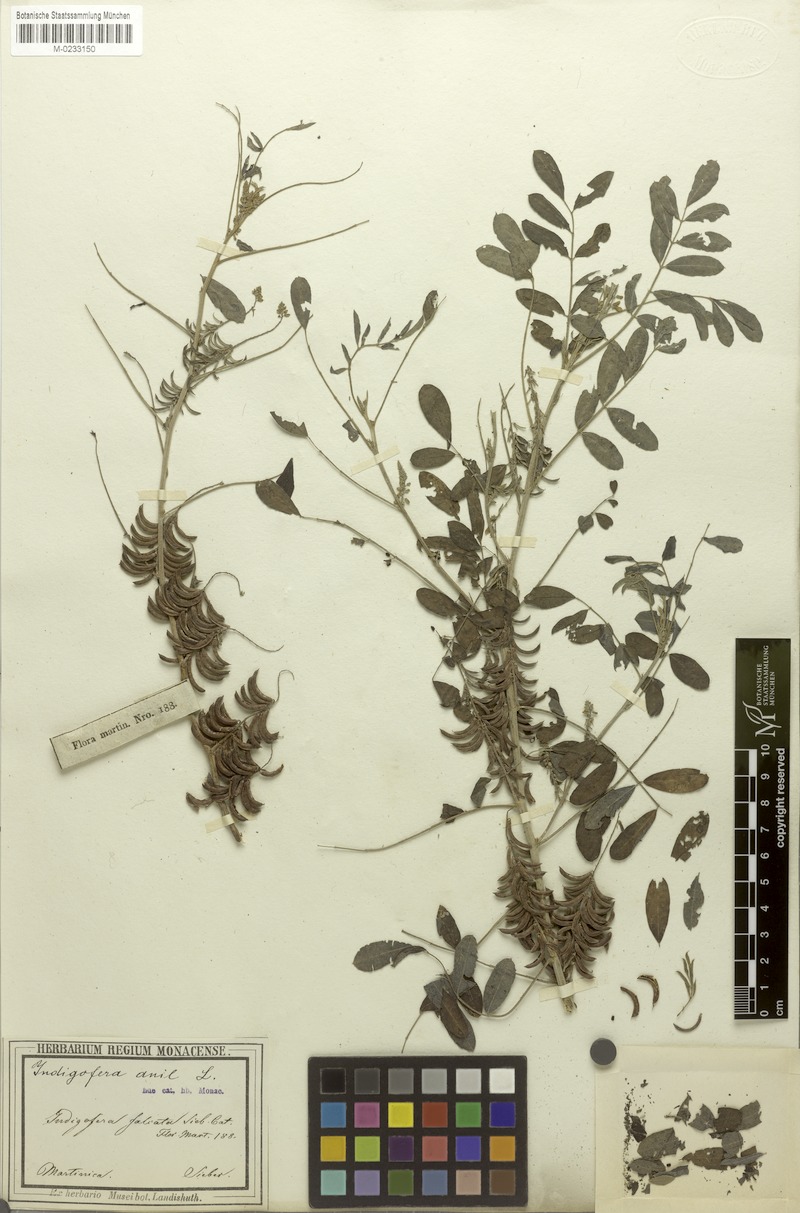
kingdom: Plantae
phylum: Tracheophyta
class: Magnoliopsida
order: Fabales
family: Fabaceae
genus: Indigofera
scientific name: Indigofera suffruticosa
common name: Anil de pasto
